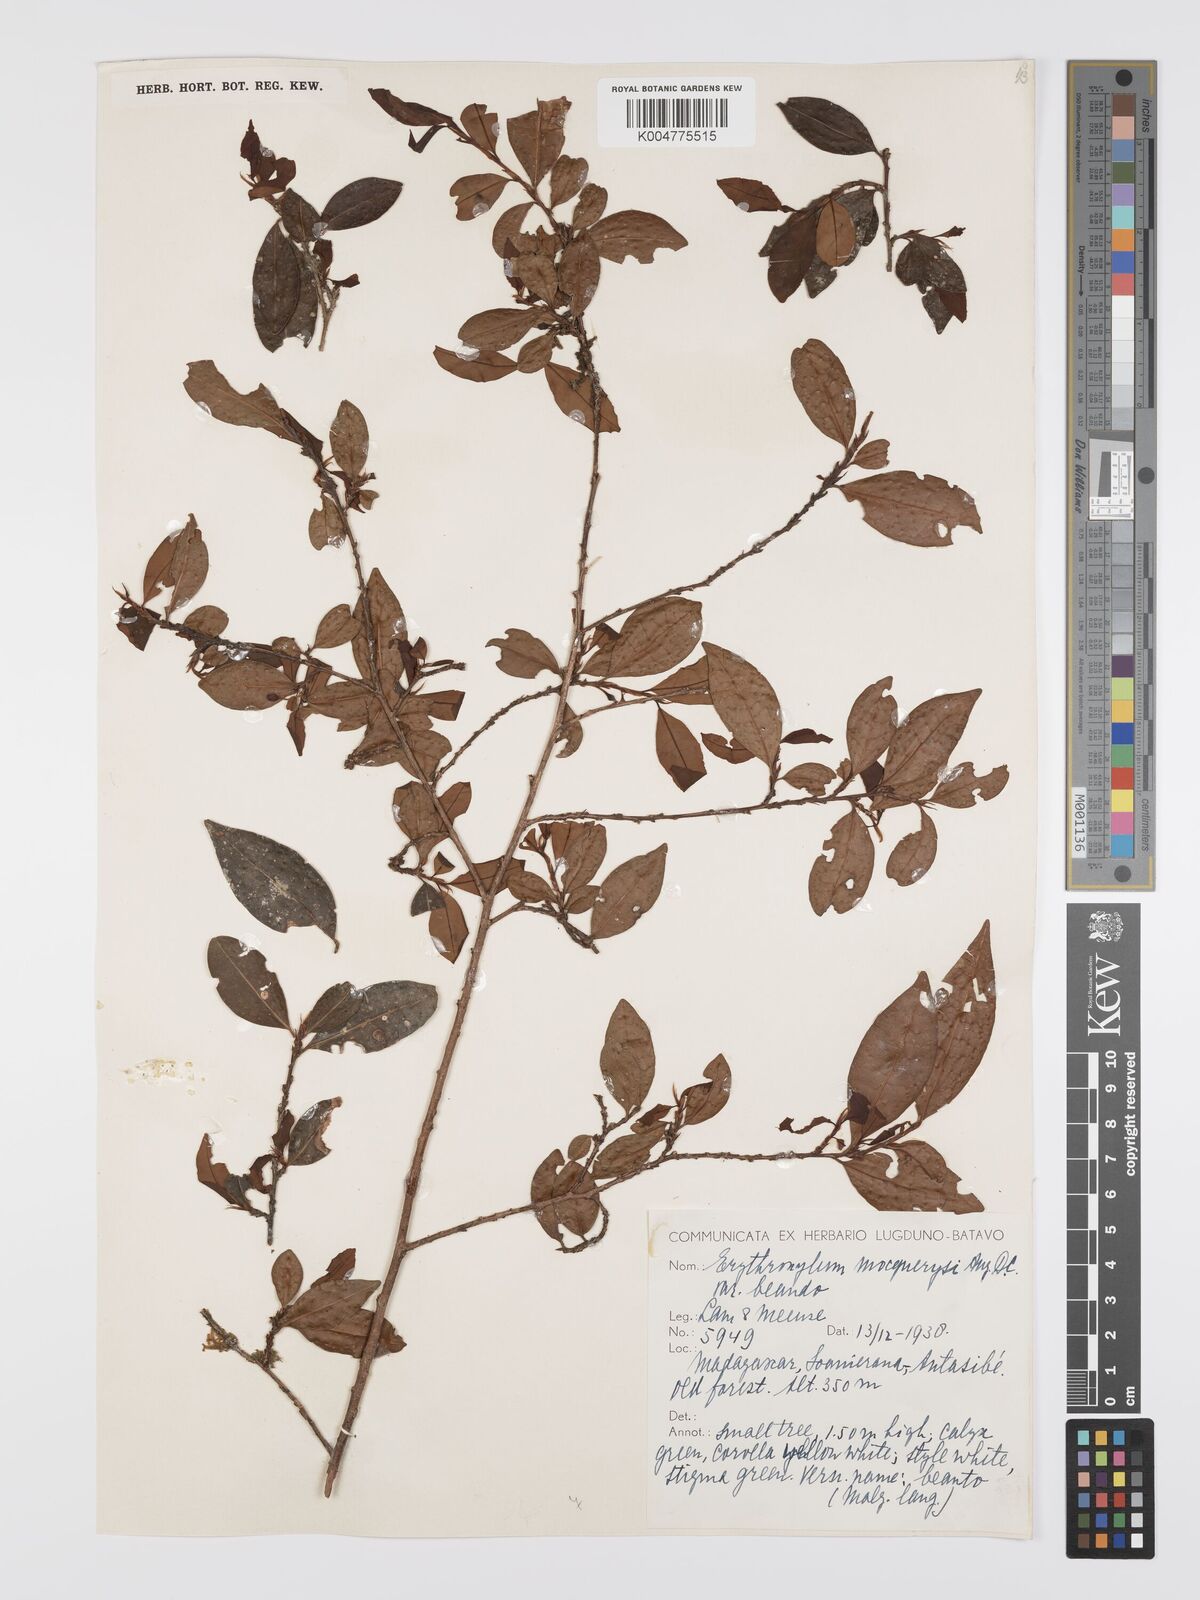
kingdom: Plantae
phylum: Tracheophyta
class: Magnoliopsida
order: Malpighiales
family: Erythroxylaceae
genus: Erythroxylum
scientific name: Erythroxylum mocquerysii
